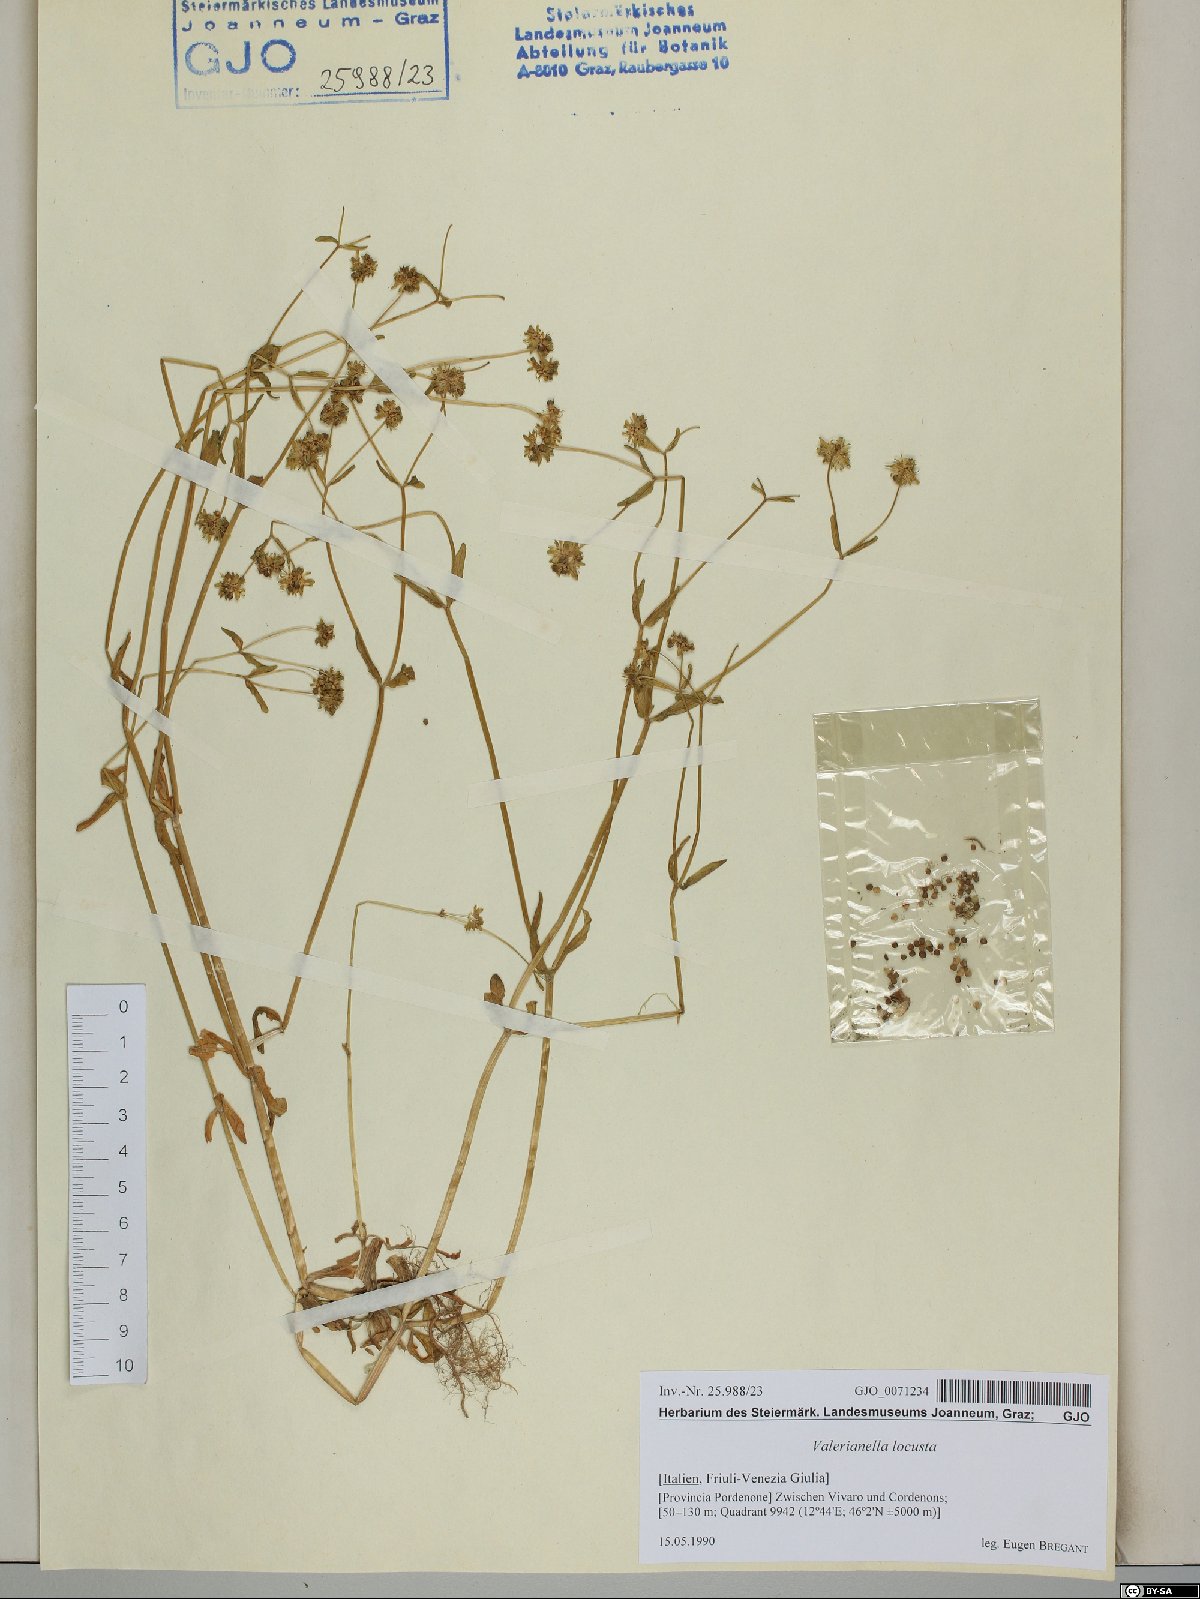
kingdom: Plantae
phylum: Tracheophyta
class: Magnoliopsida
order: Dipsacales
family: Caprifoliaceae
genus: Valerianella
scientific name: Valerianella locusta
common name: Common cornsalad
